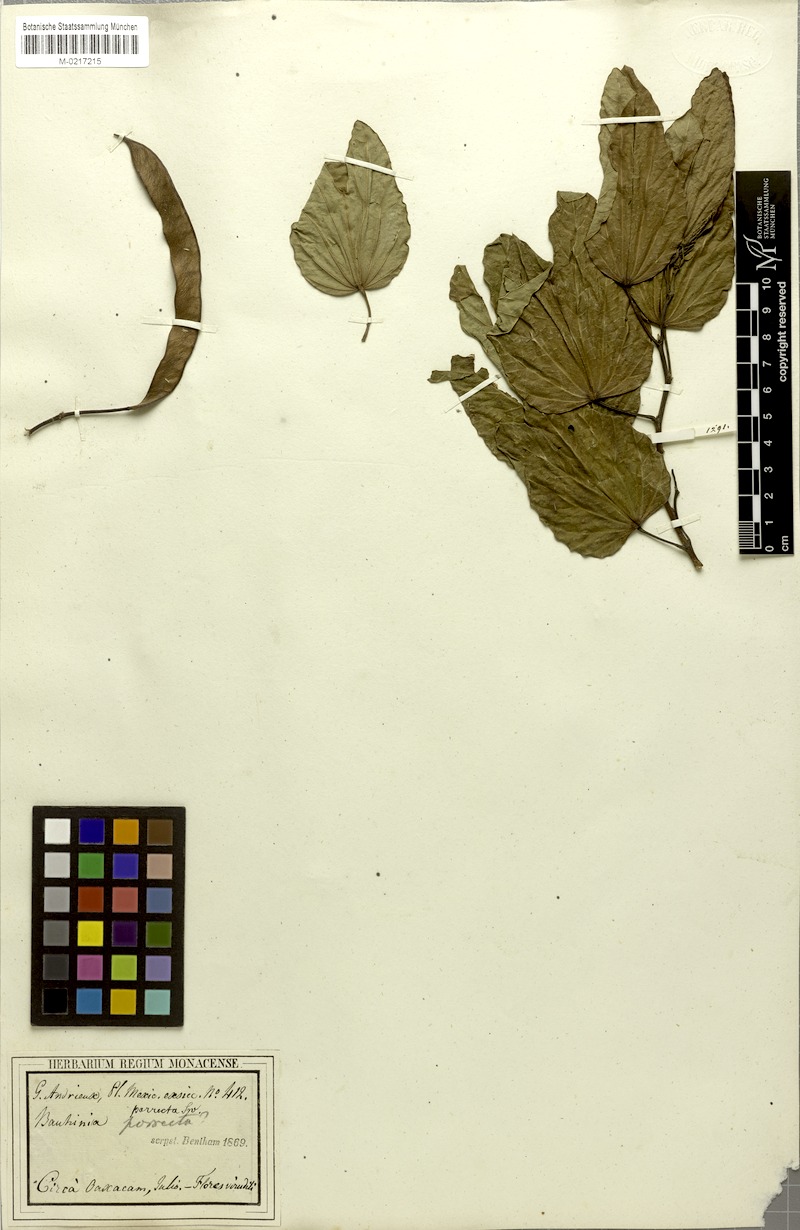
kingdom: Plantae
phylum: Tracheophyta
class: Magnoliopsida
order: Fabales
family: Fabaceae
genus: Bauhinia
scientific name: Bauhinia divaricata
